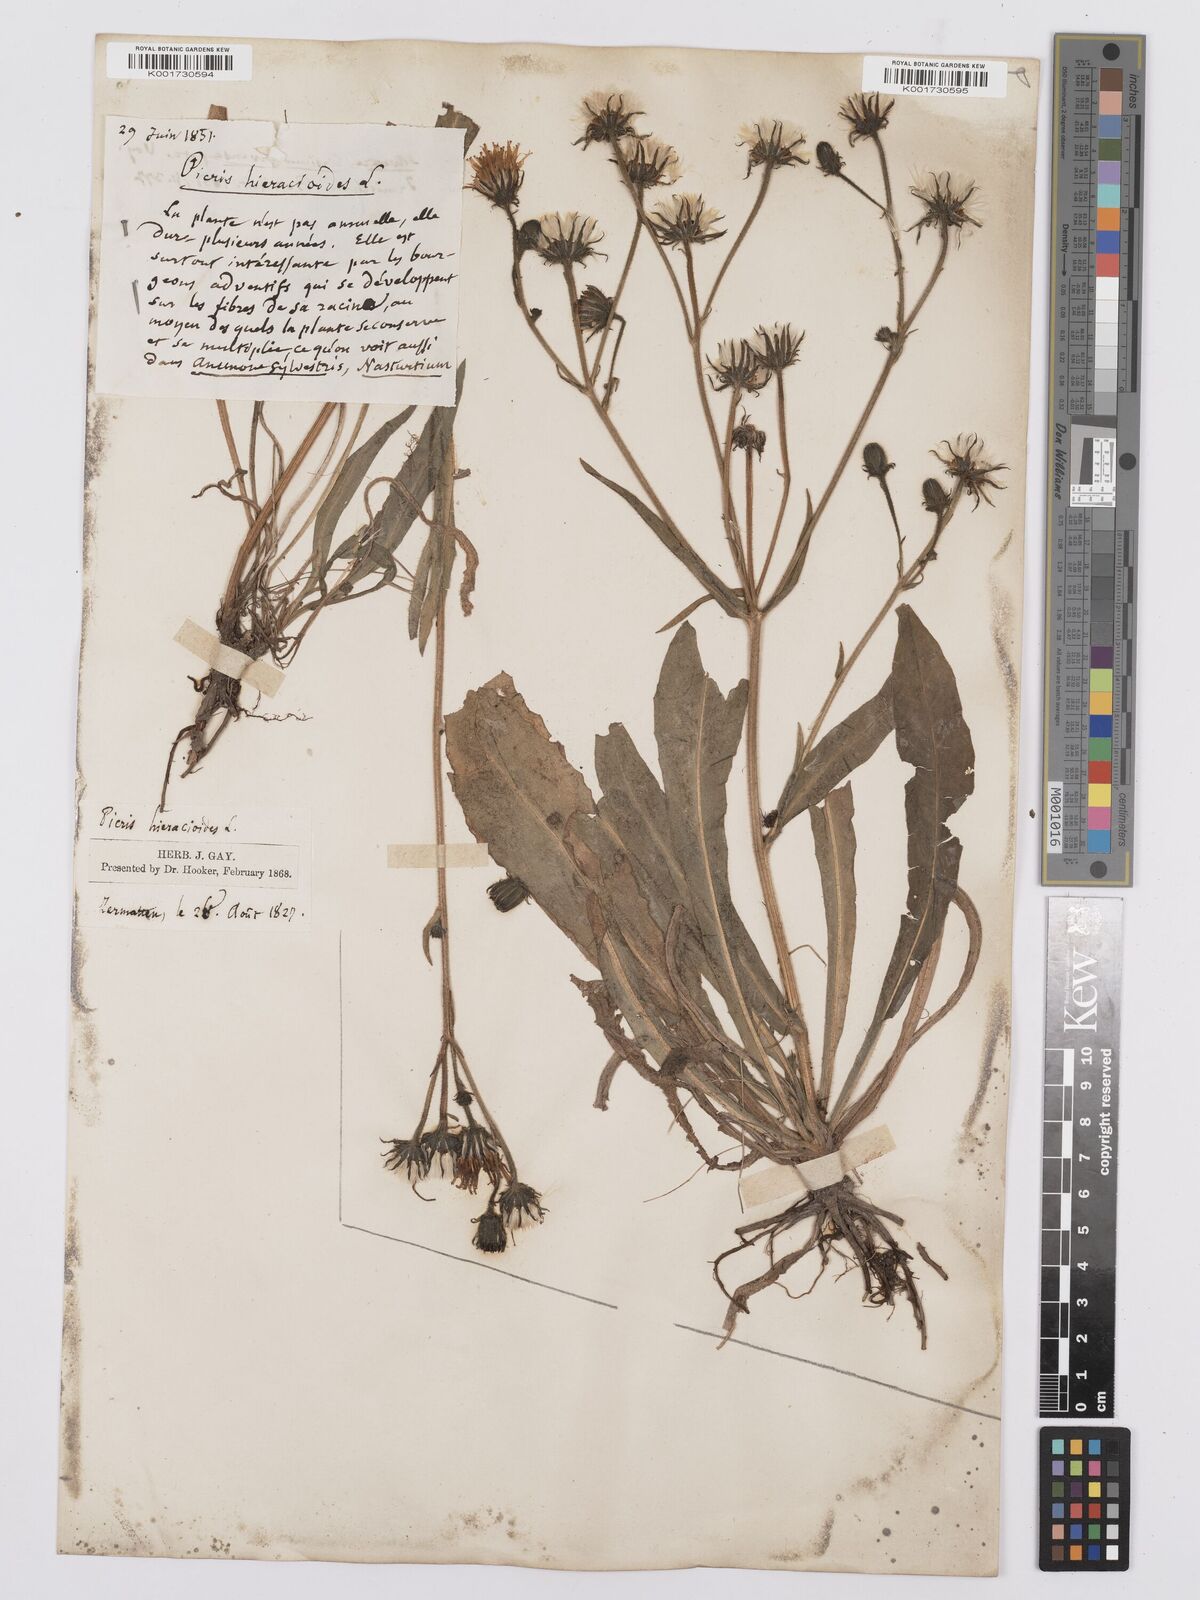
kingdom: Plantae
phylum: Tracheophyta
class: Magnoliopsida
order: Asterales
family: Asteraceae
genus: Picris
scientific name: Picris hieracioides
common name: Hawkweed oxtongue
